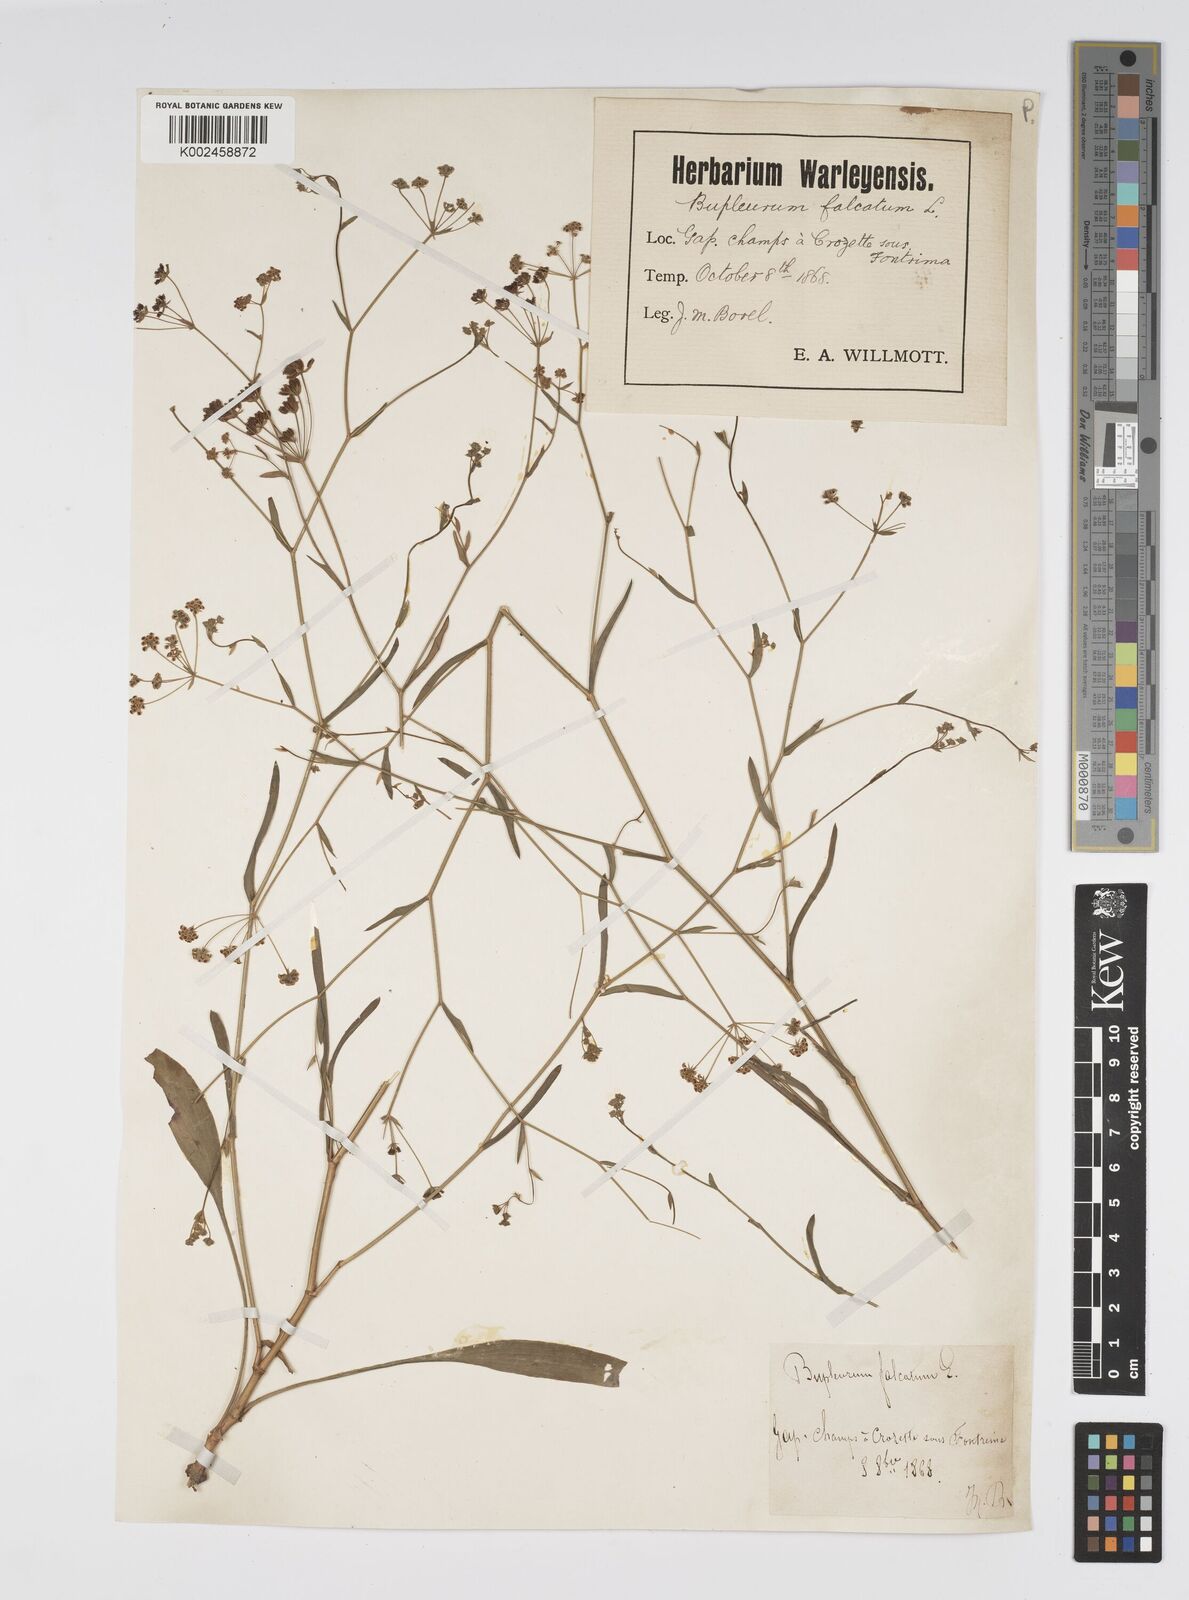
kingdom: Plantae
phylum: Tracheophyta
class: Magnoliopsida
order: Apiales
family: Apiaceae
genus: Bupleurum
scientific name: Bupleurum falcatum
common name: Sickle-leaved hare's-ear
